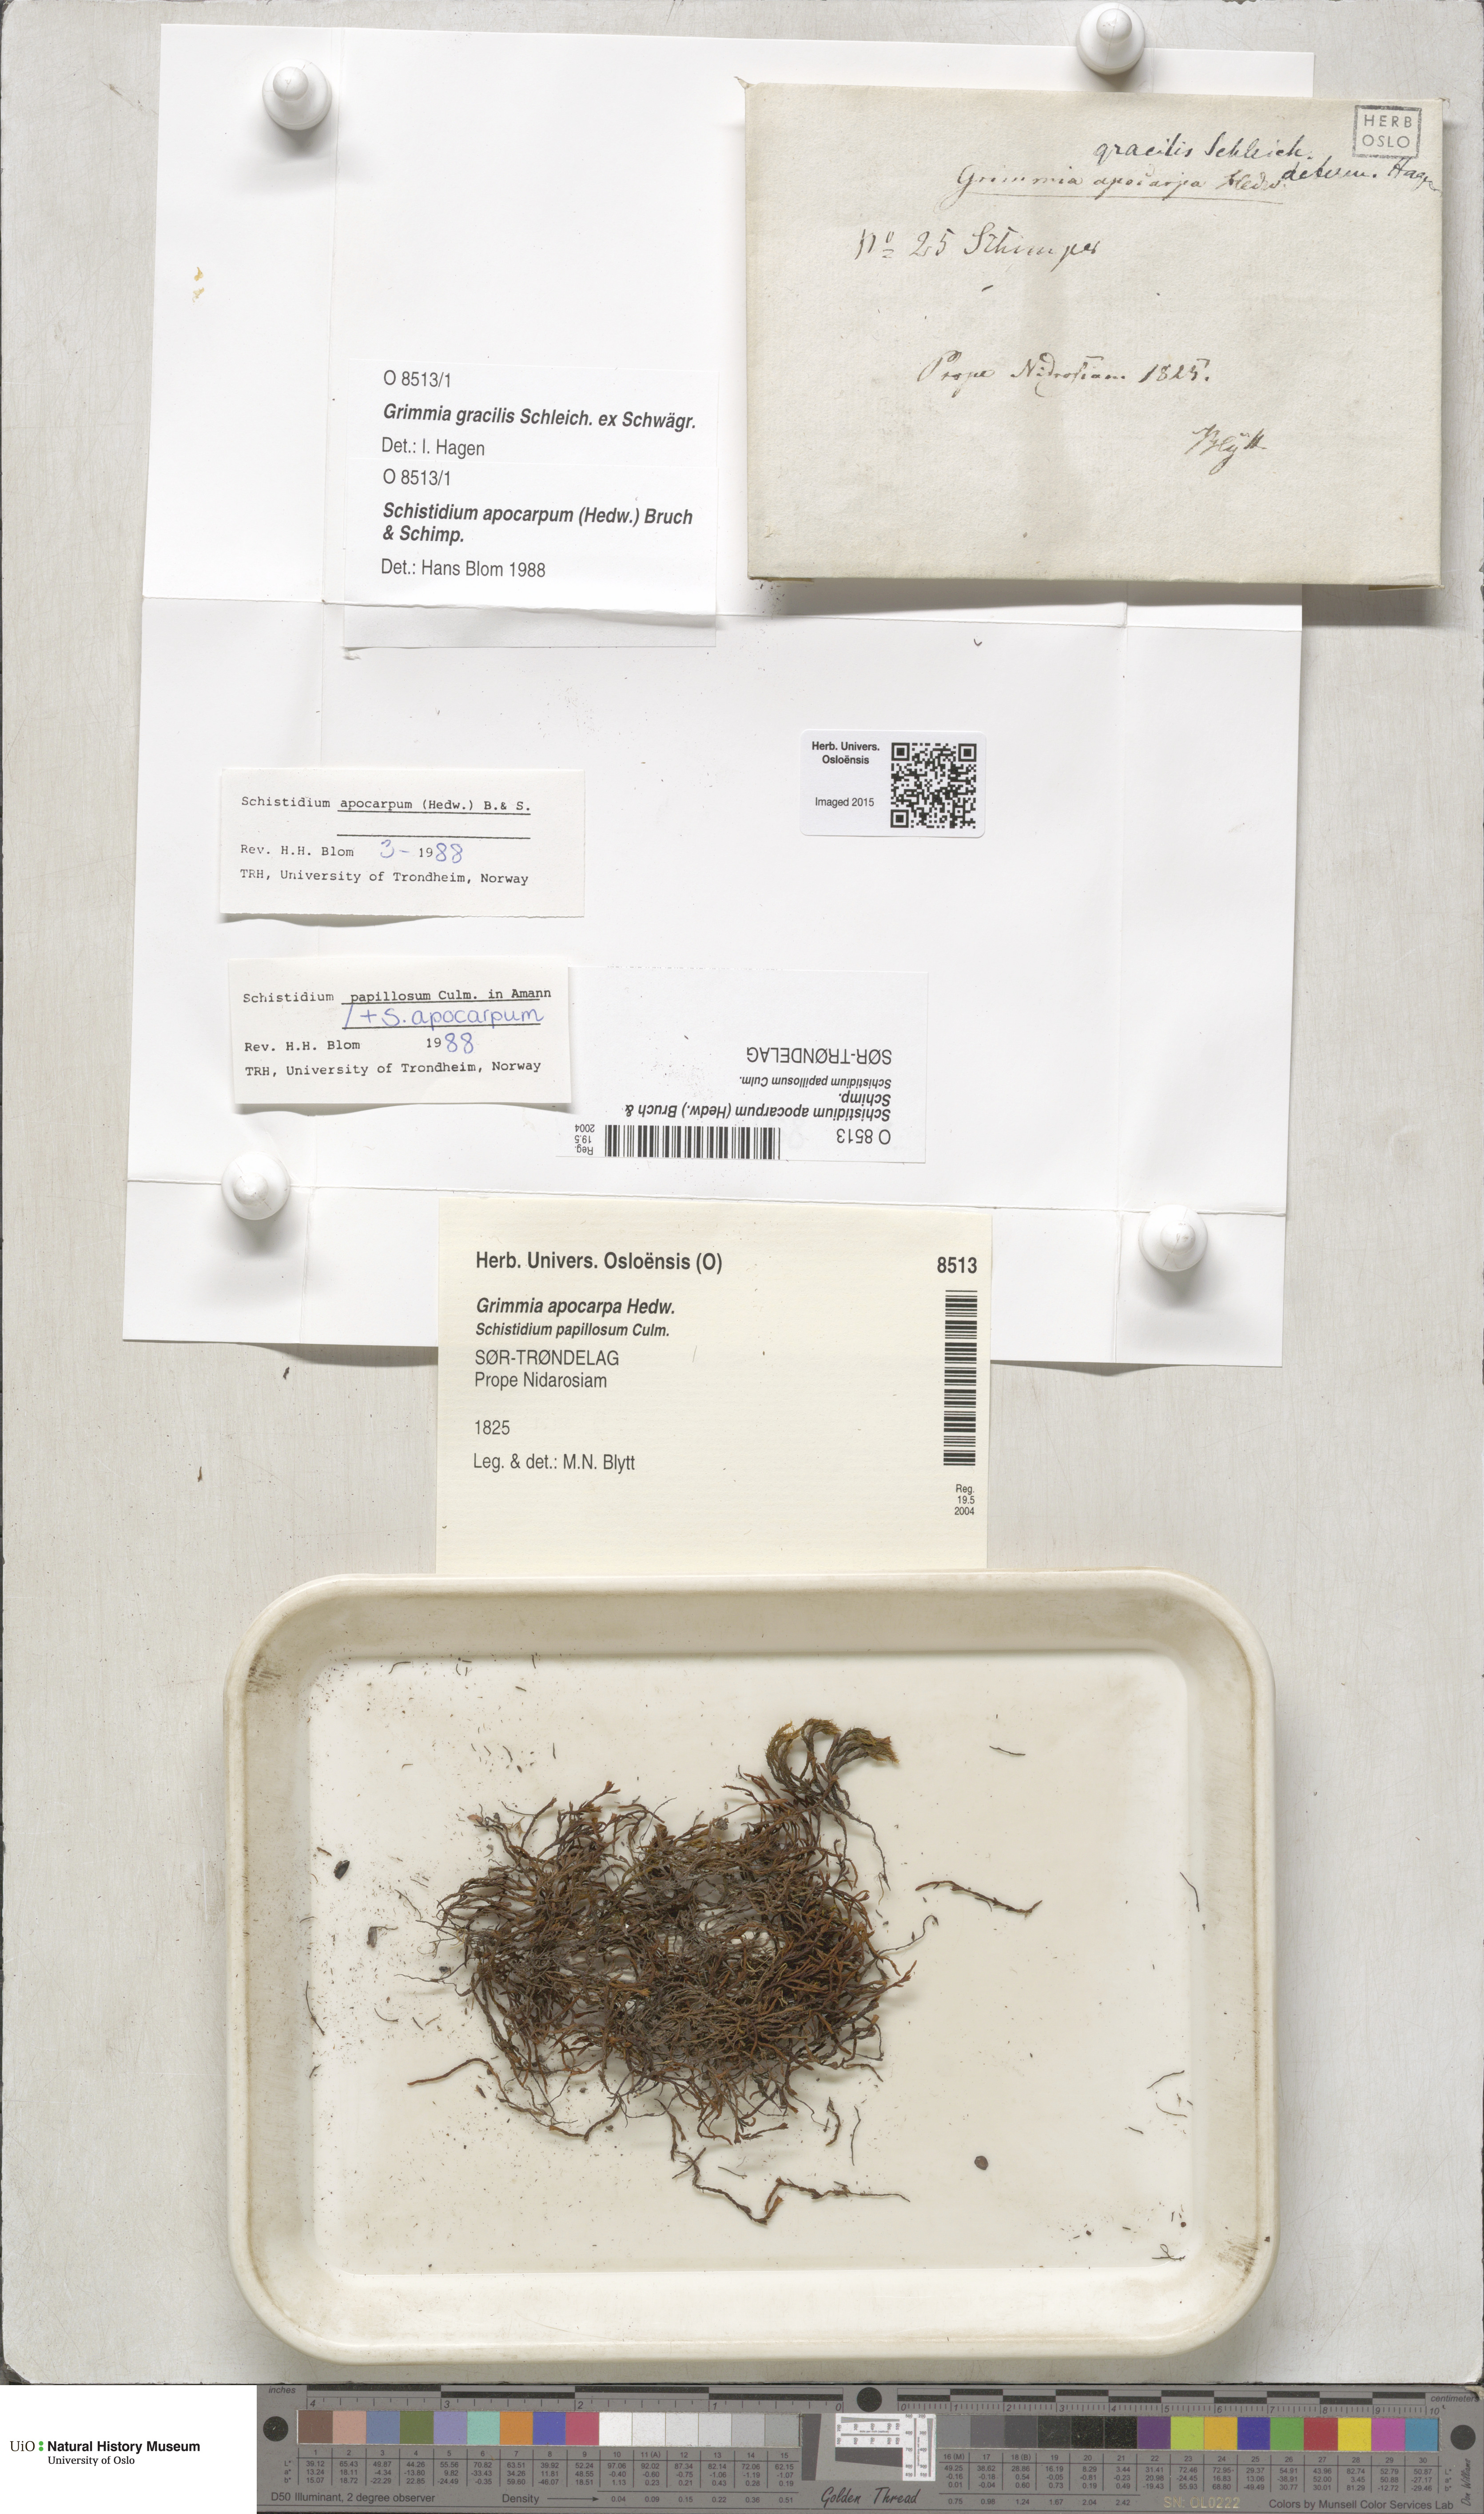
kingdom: Plantae
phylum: Bryophyta
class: Bryopsida
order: Grimmiales
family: Grimmiaceae
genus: Schistidium
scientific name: Schistidium apocarpum
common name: Radiate bloom moss
